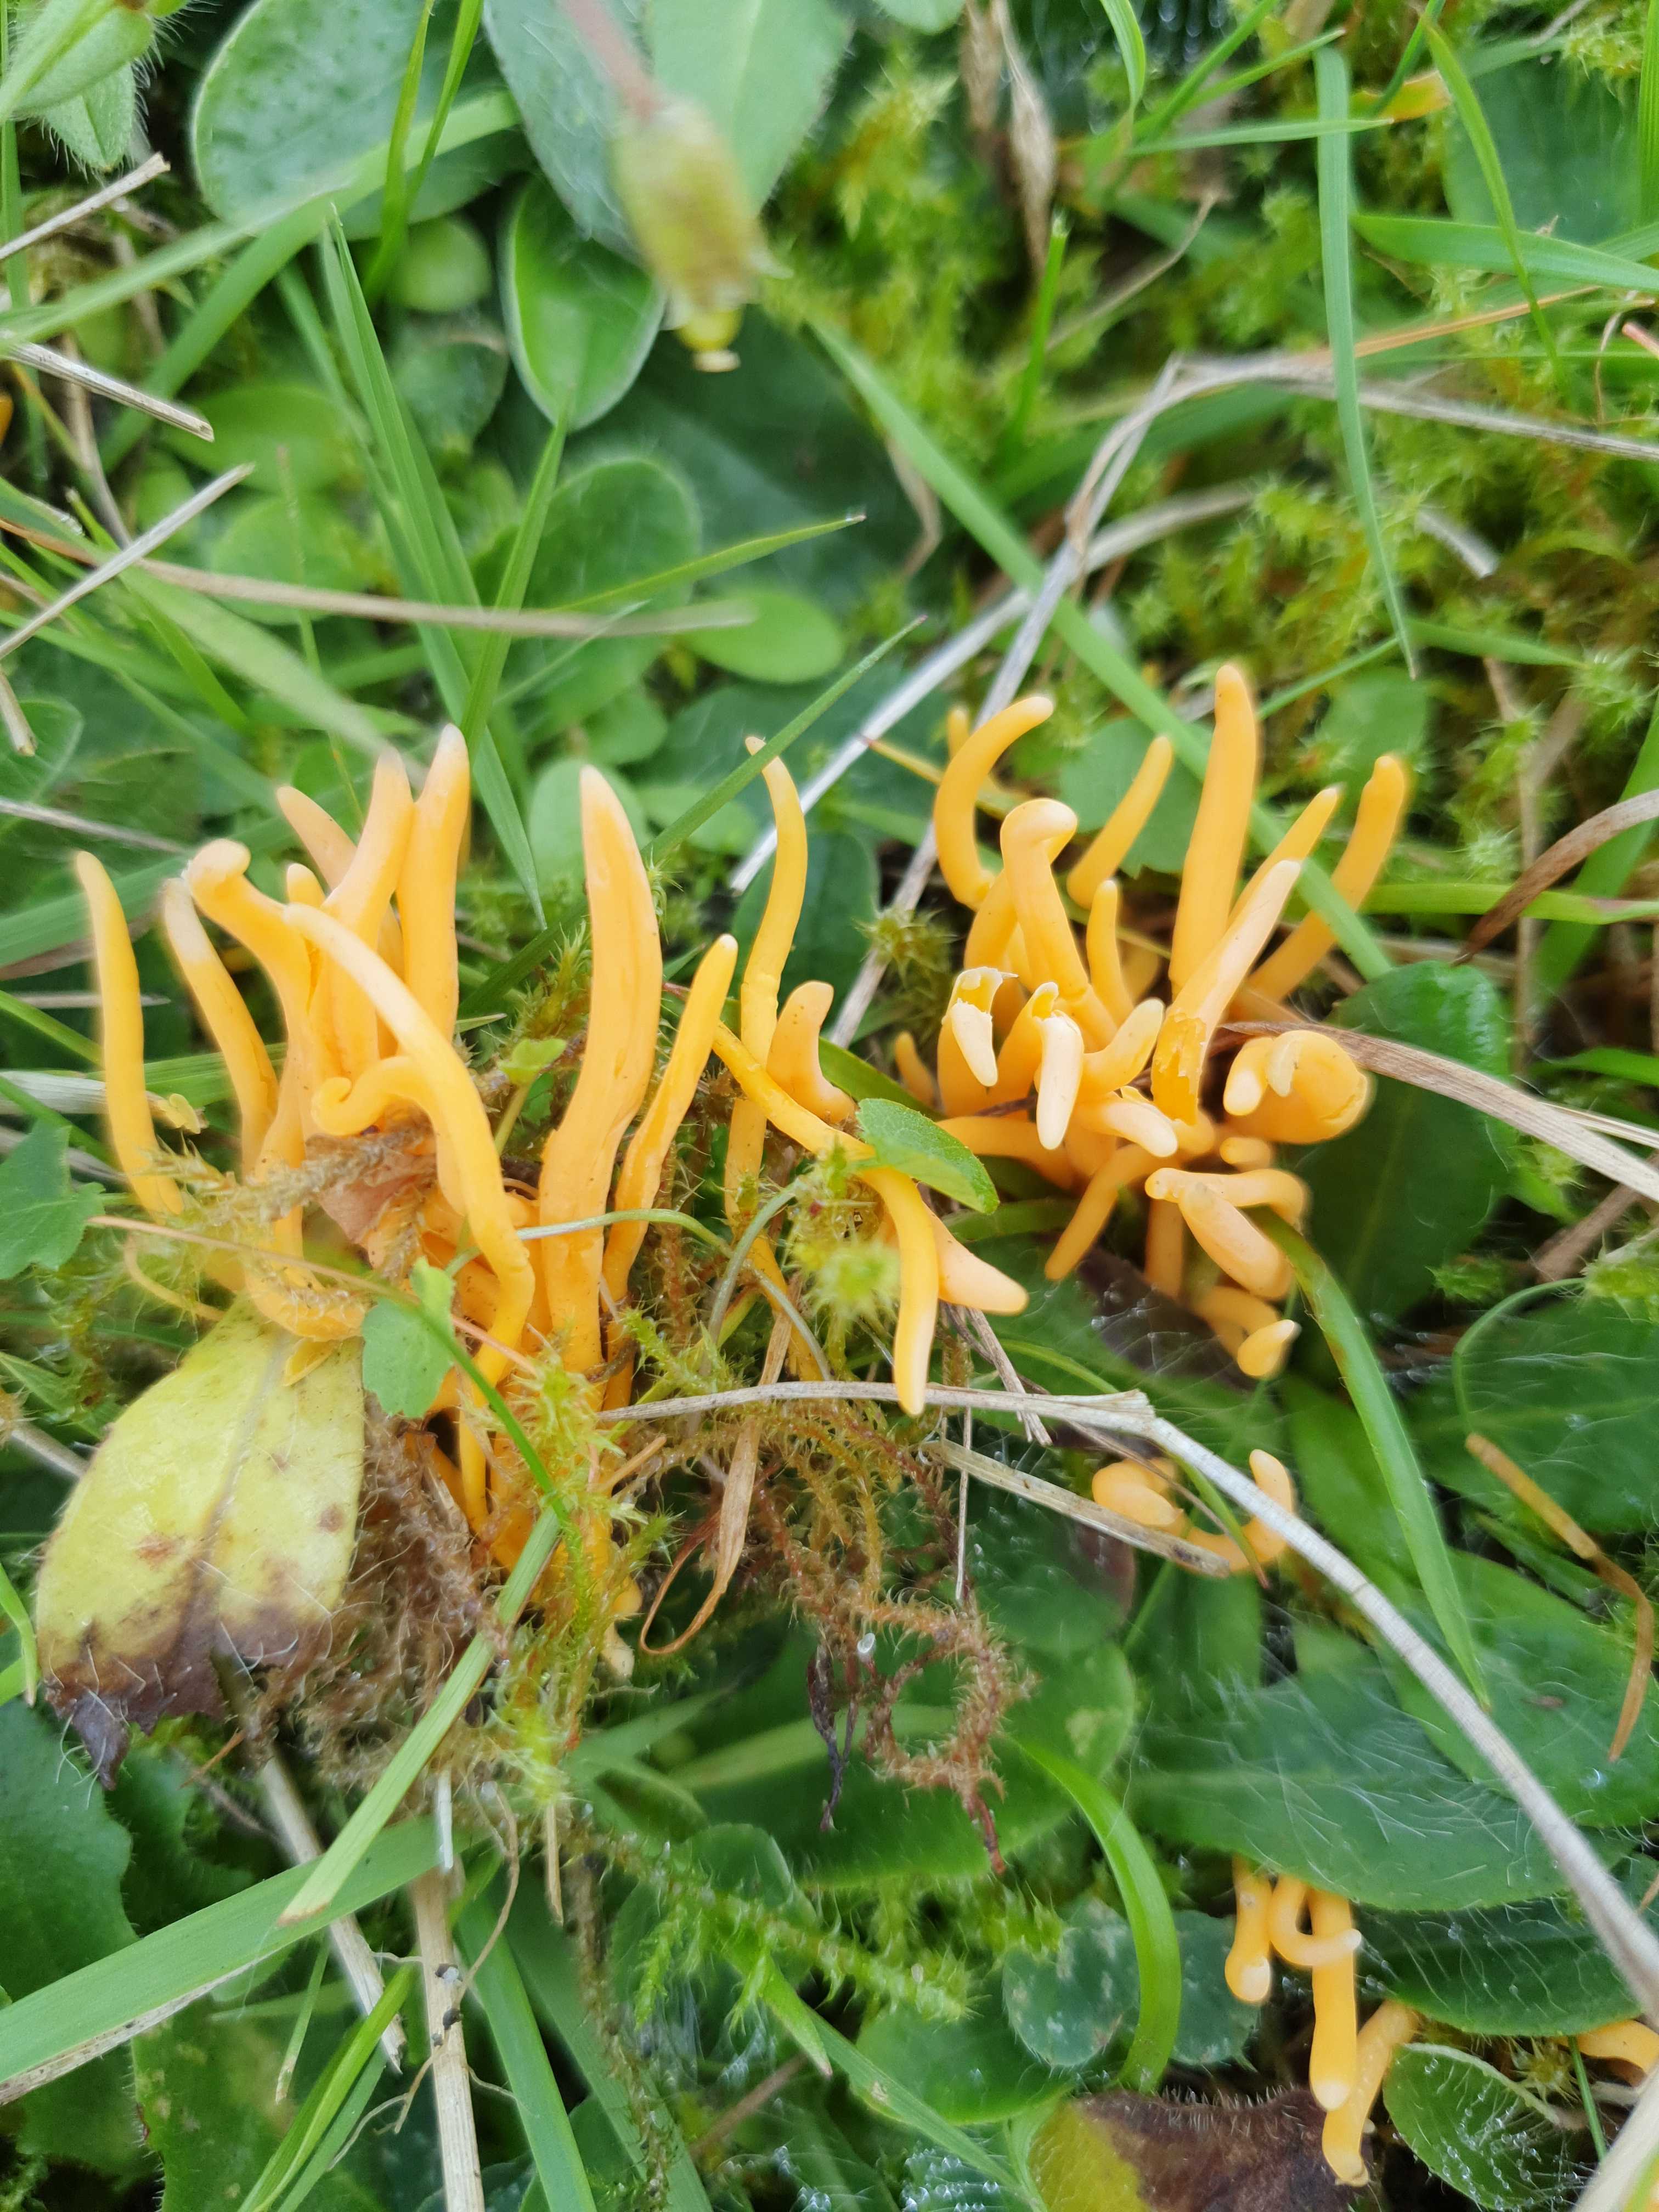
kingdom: Fungi
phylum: Basidiomycota
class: Agaricomycetes
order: Agaricales
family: Clavariaceae
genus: Clavulinopsis
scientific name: Clavulinopsis luteoalba
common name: abrikos-køllesvamp
